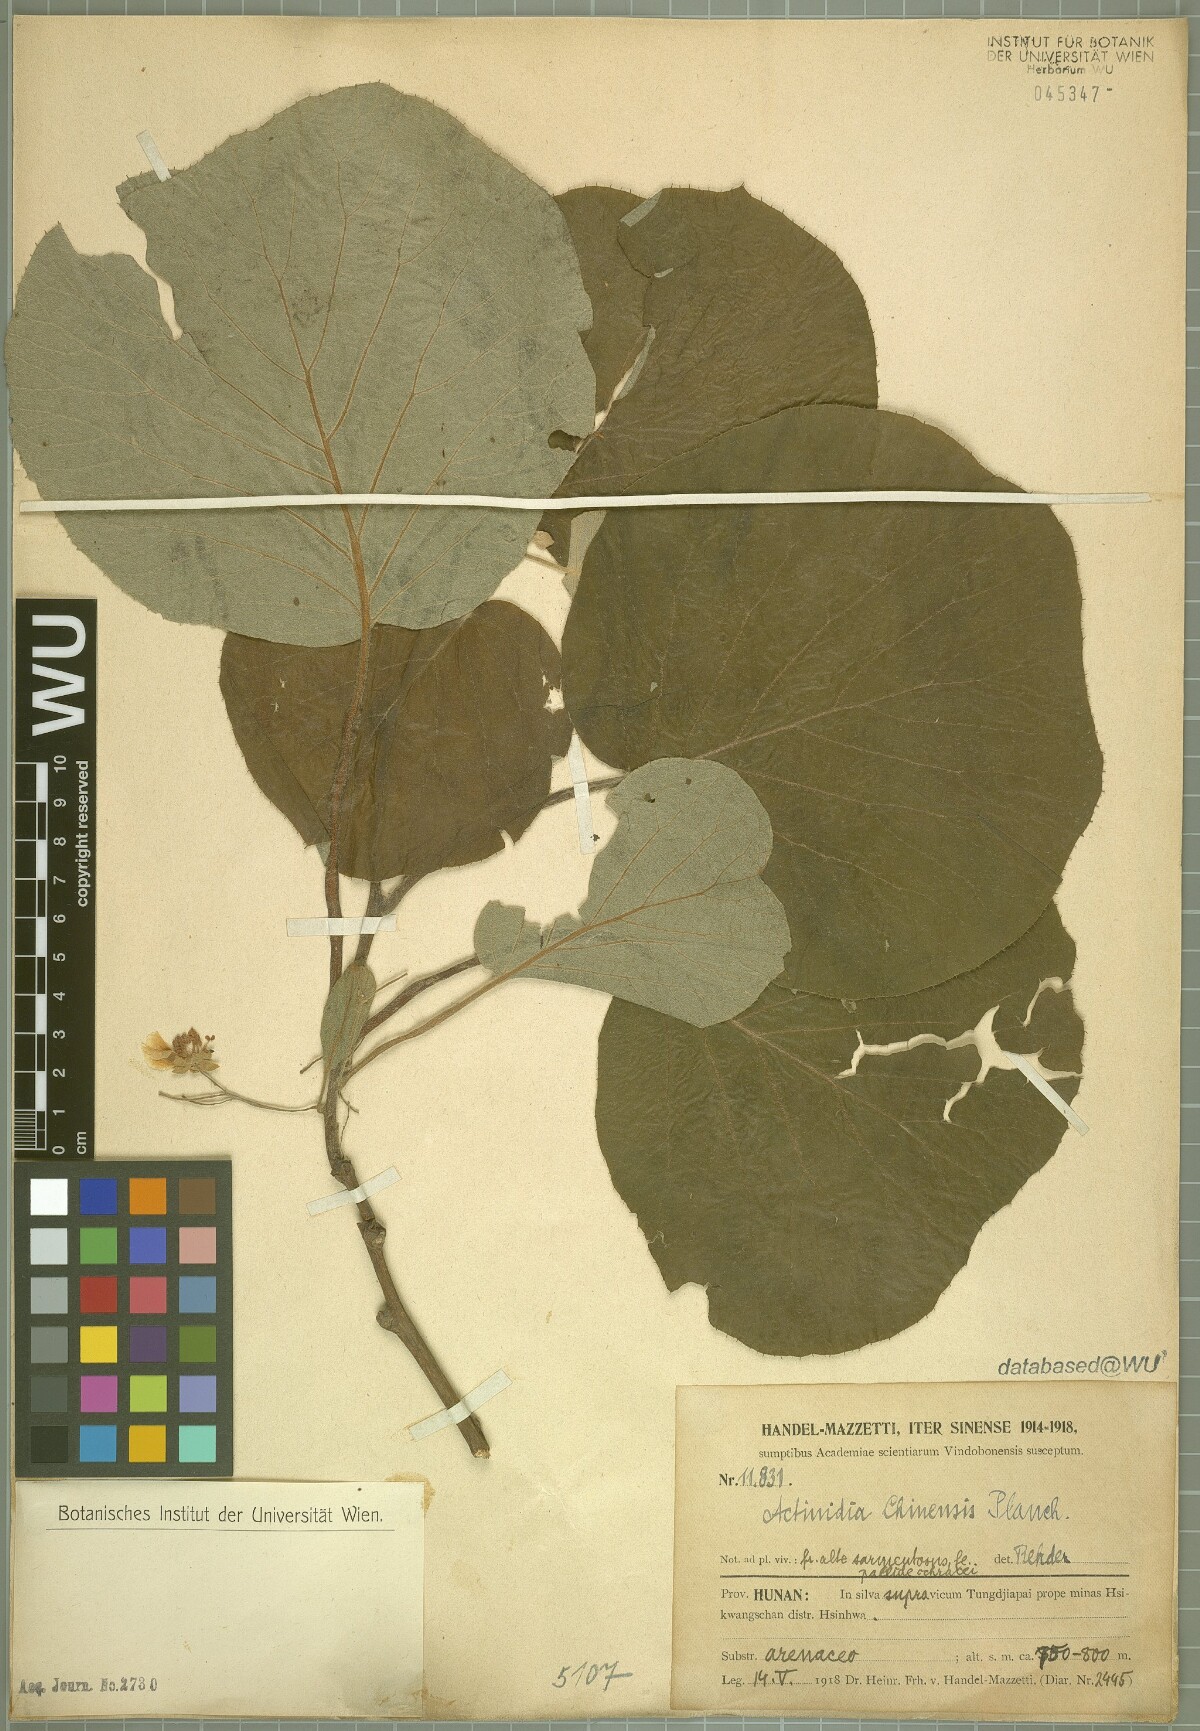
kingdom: Plantae
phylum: Tracheophyta
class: Magnoliopsida
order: Ericales
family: Actinidiaceae
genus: Actinidia
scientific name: Actinidia chinensis
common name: Kiwi
